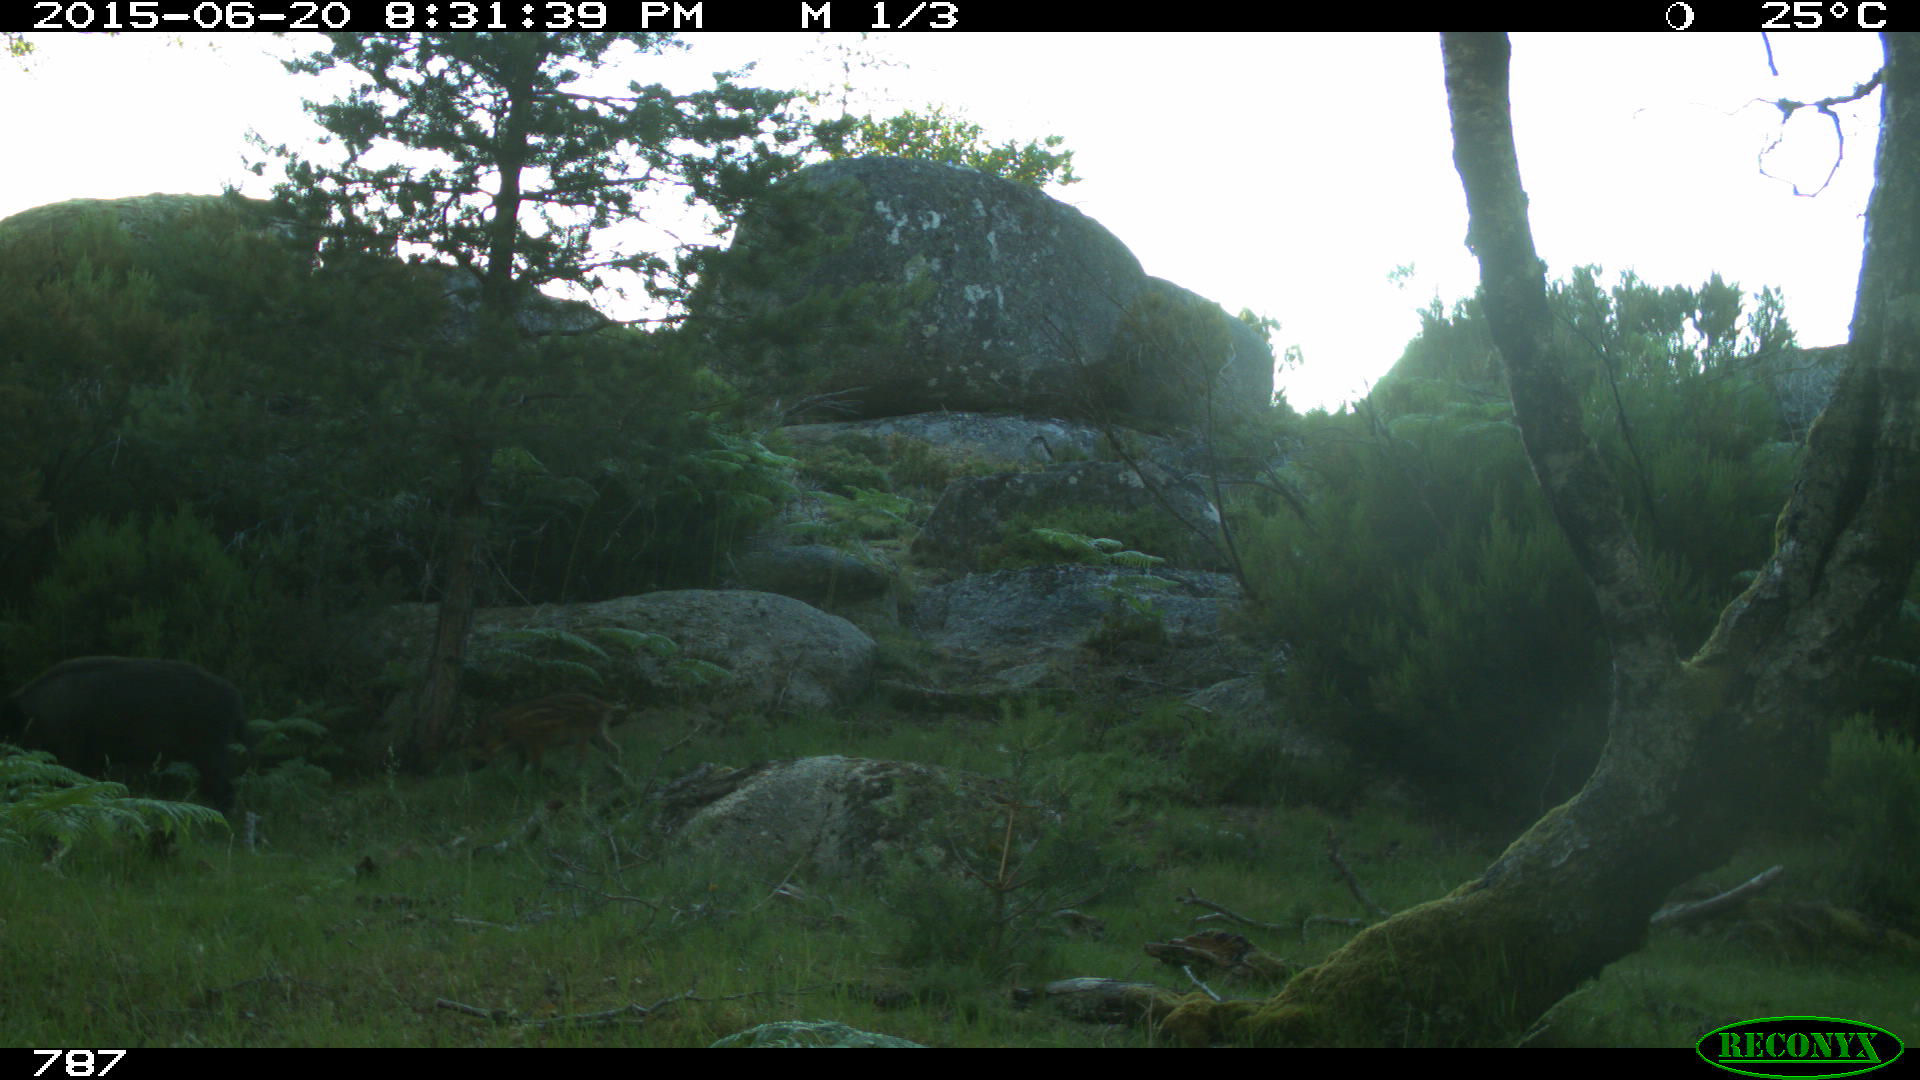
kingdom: Animalia
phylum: Chordata
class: Mammalia
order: Artiodactyla
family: Suidae
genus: Sus
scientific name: Sus scrofa
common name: Wild boar
